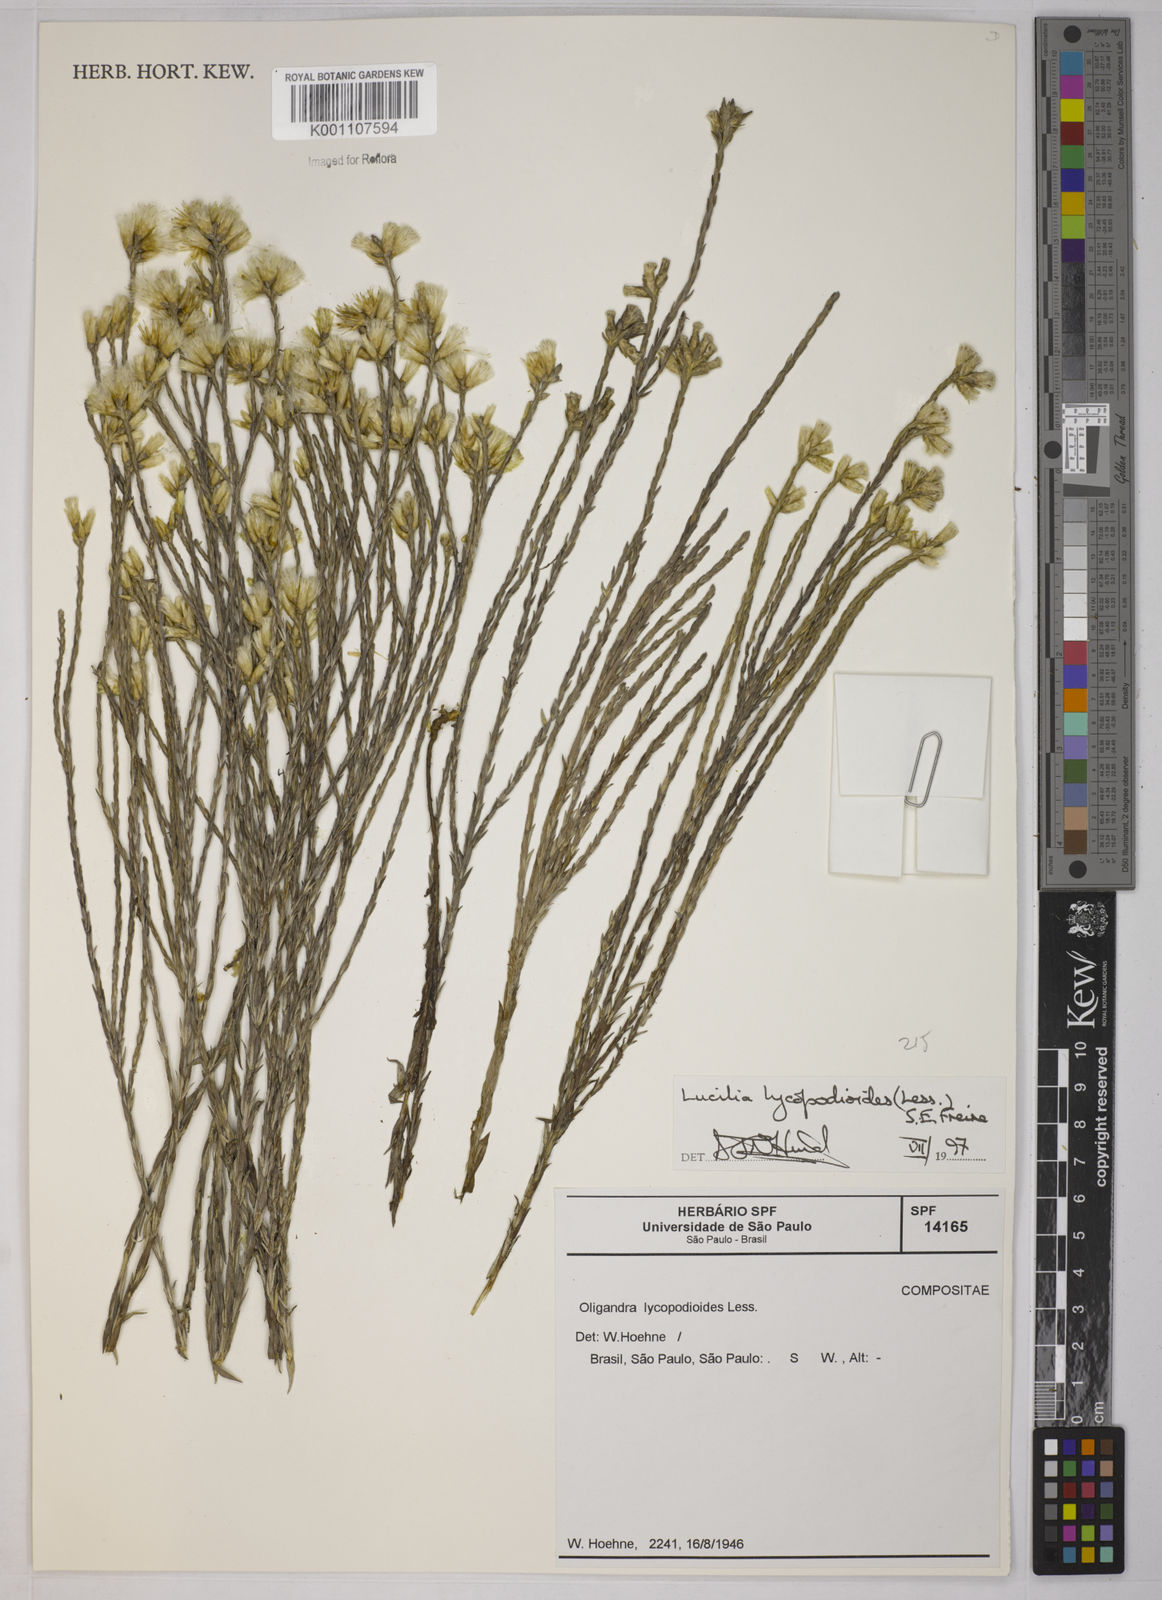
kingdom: Plantae
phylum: Tracheophyta
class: Magnoliopsida
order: Asterales
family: Asteraceae
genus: Lucilia
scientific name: Lucilia lycopodioides
